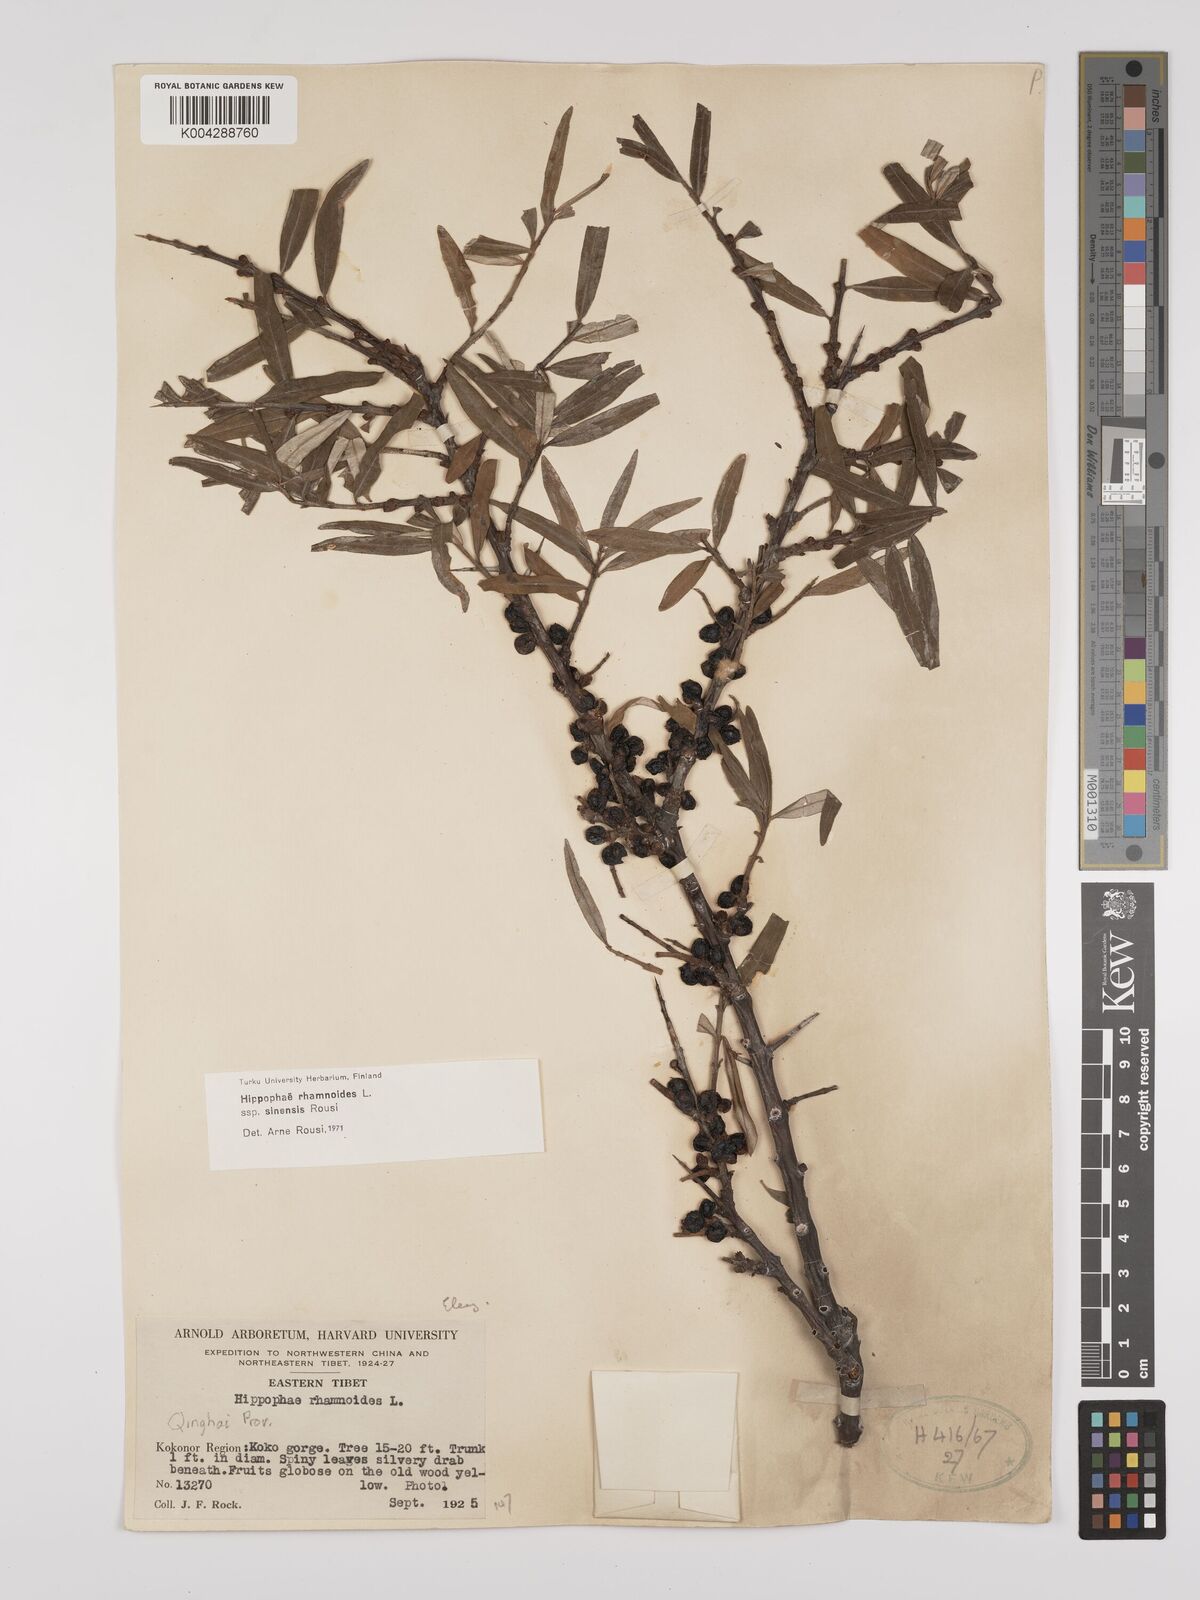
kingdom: Plantae
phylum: Tracheophyta
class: Magnoliopsida
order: Rosales
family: Elaeagnaceae
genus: Hippophae
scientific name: Hippophae rhamnoides
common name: Sea-buckthorn
